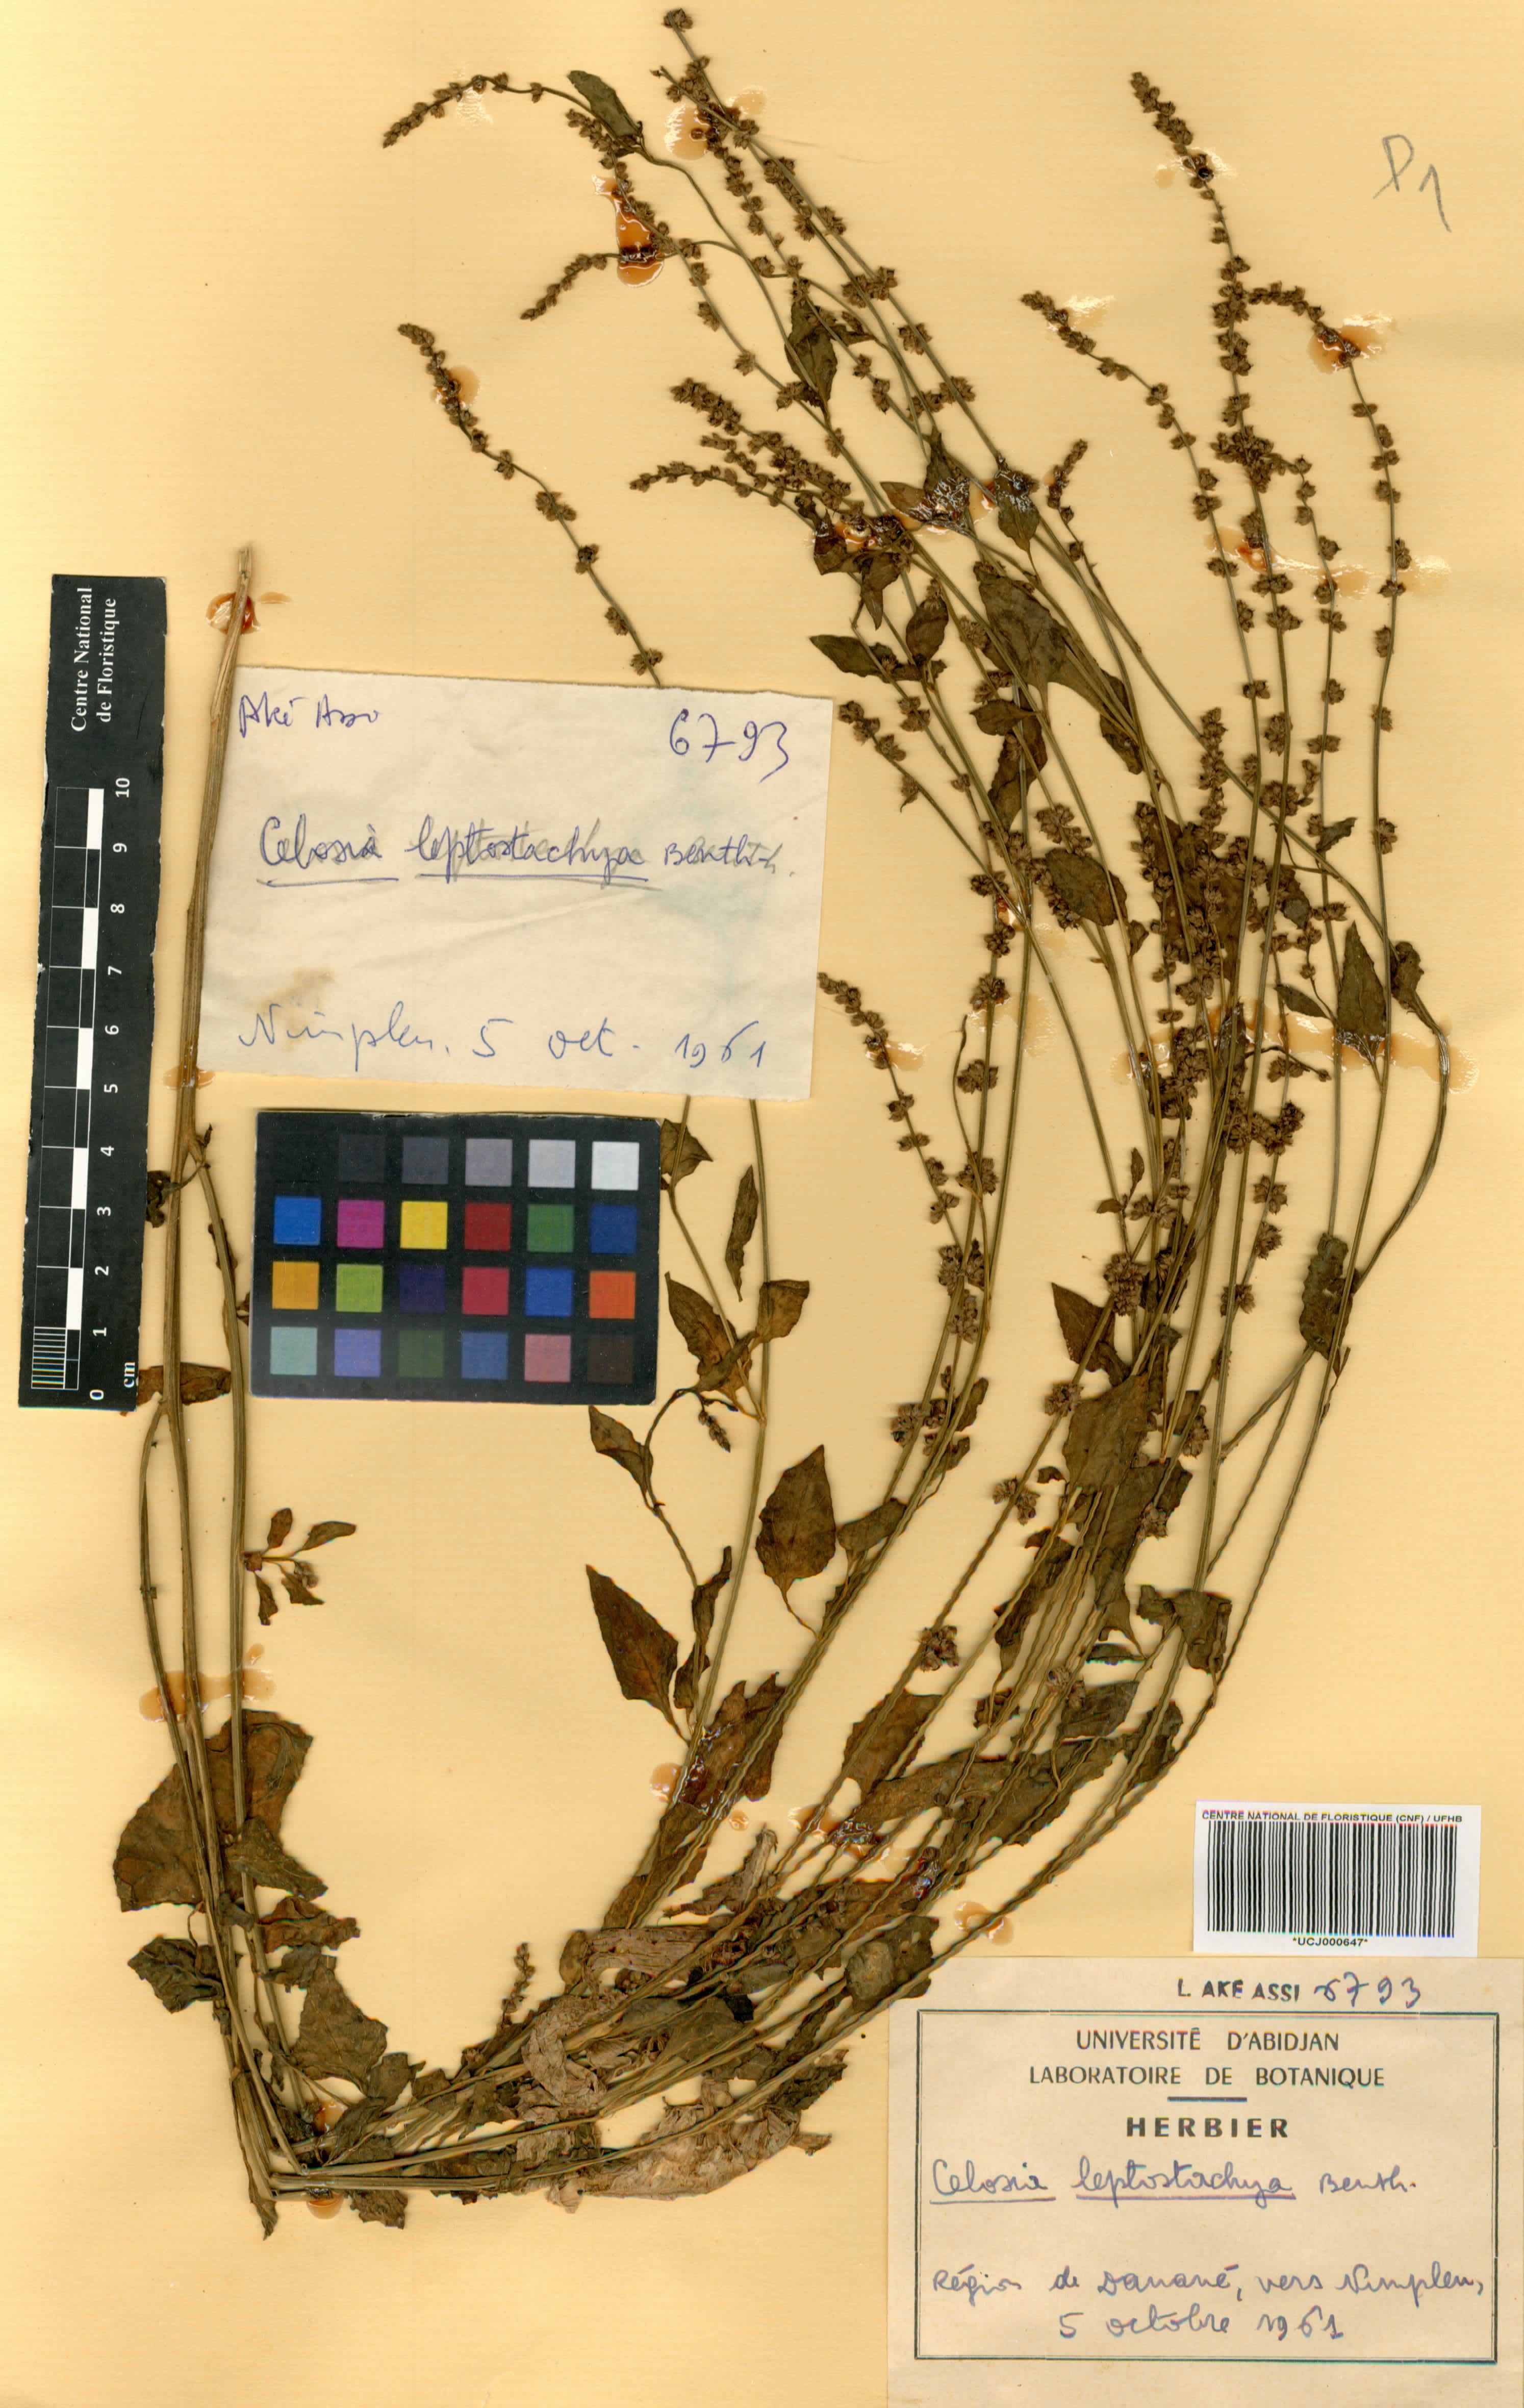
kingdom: Plantae
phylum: Tracheophyta
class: Magnoliopsida
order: Caryophyllales
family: Amaranthaceae
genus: Celosia
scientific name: Celosia leptostachya
